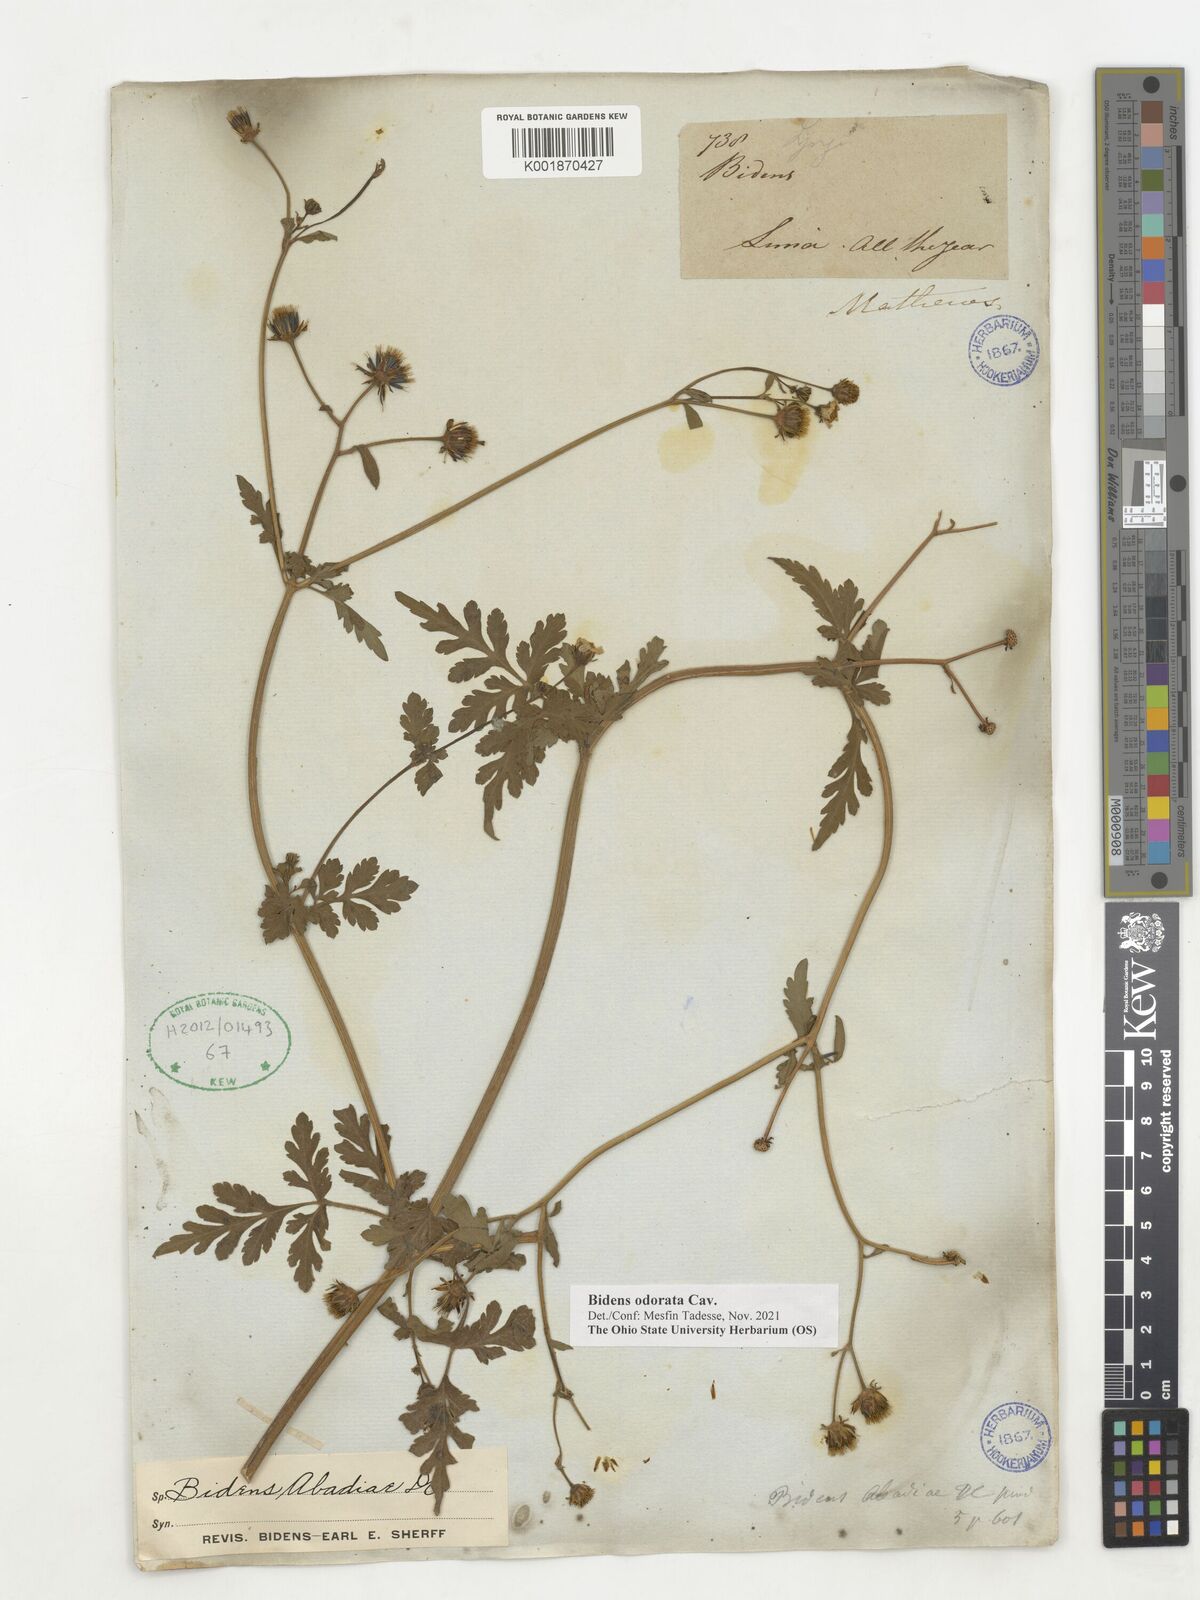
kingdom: Plantae
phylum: Tracheophyta
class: Magnoliopsida
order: Asterales
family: Asteraceae
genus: Bidens
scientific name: Bidens pilosa
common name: Black-jack
